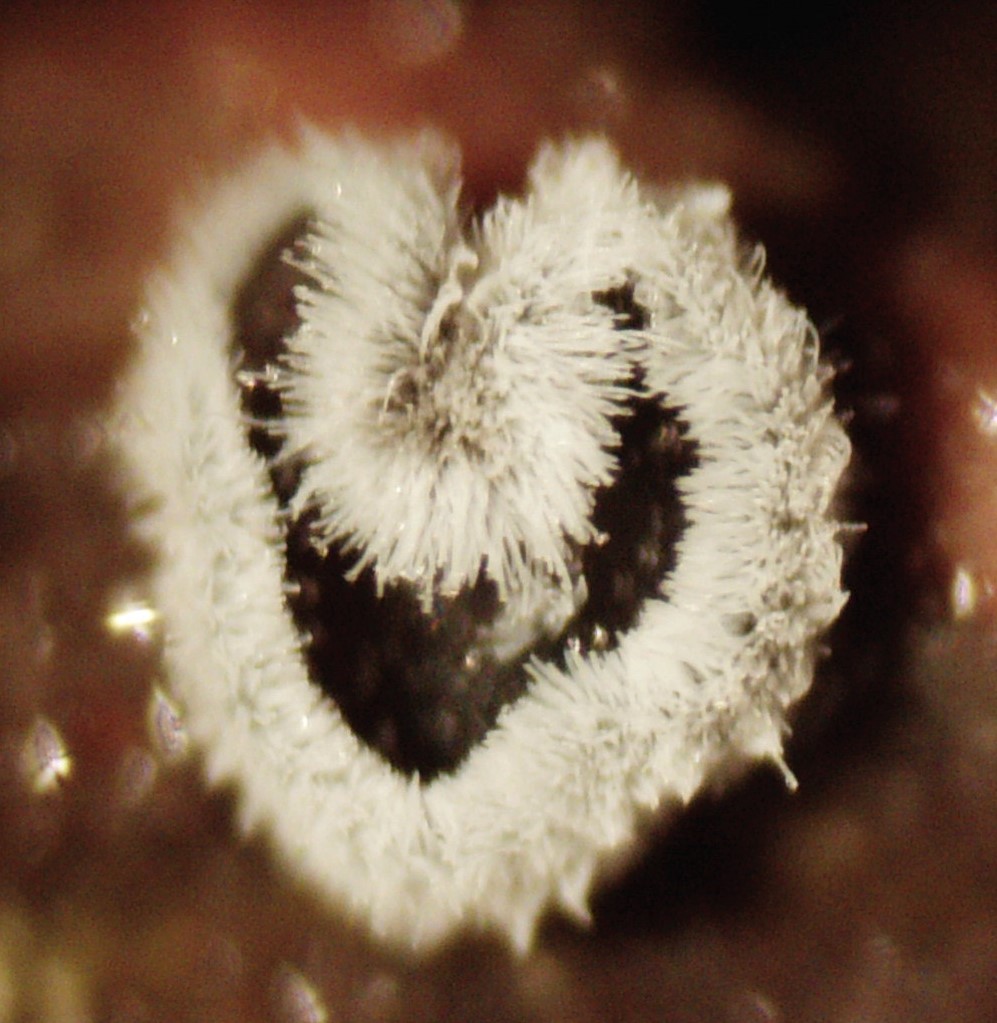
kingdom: Fungi
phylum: Basidiomycota
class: Agaricomycetes
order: Agaricales
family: Niaceae
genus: Lachnella
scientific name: Lachnella alboviolascens
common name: grå frynserede
